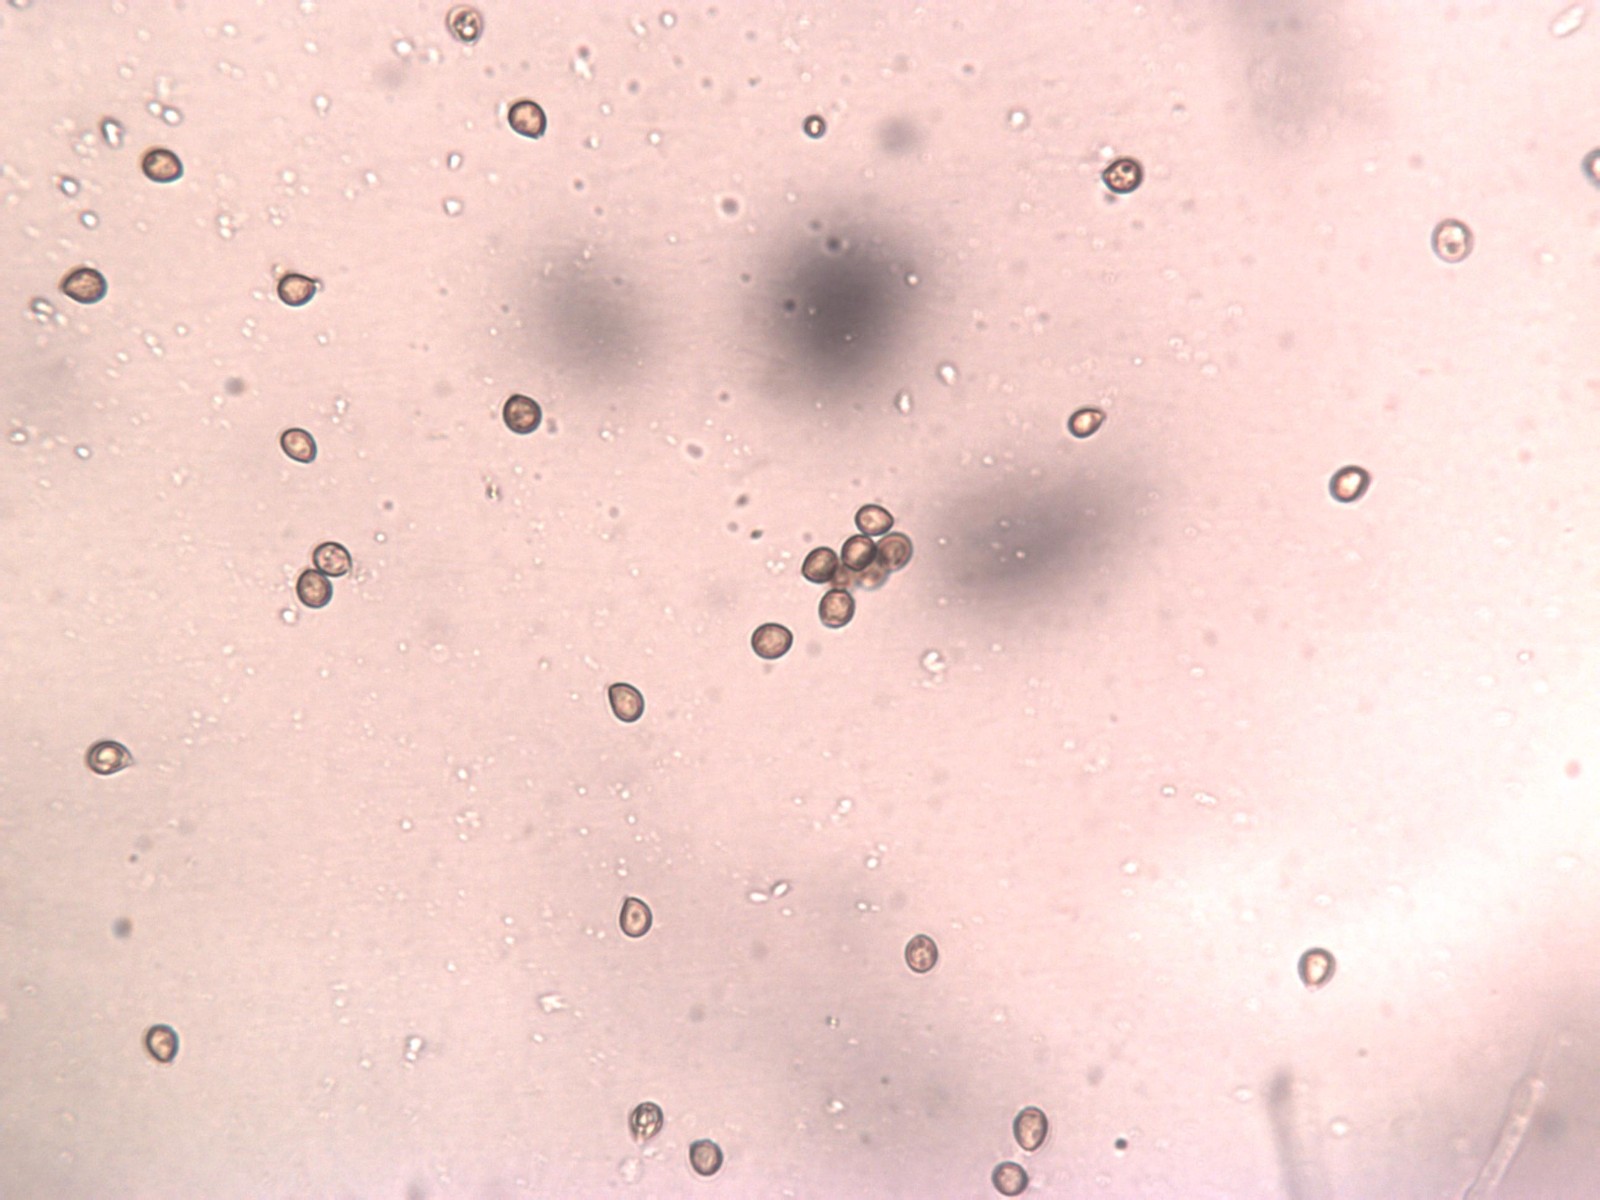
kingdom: Fungi
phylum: Basidiomycota
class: Agaricomycetes
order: Agaricales
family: Cortinariaceae
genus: Cortinarius
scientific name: Cortinarius
